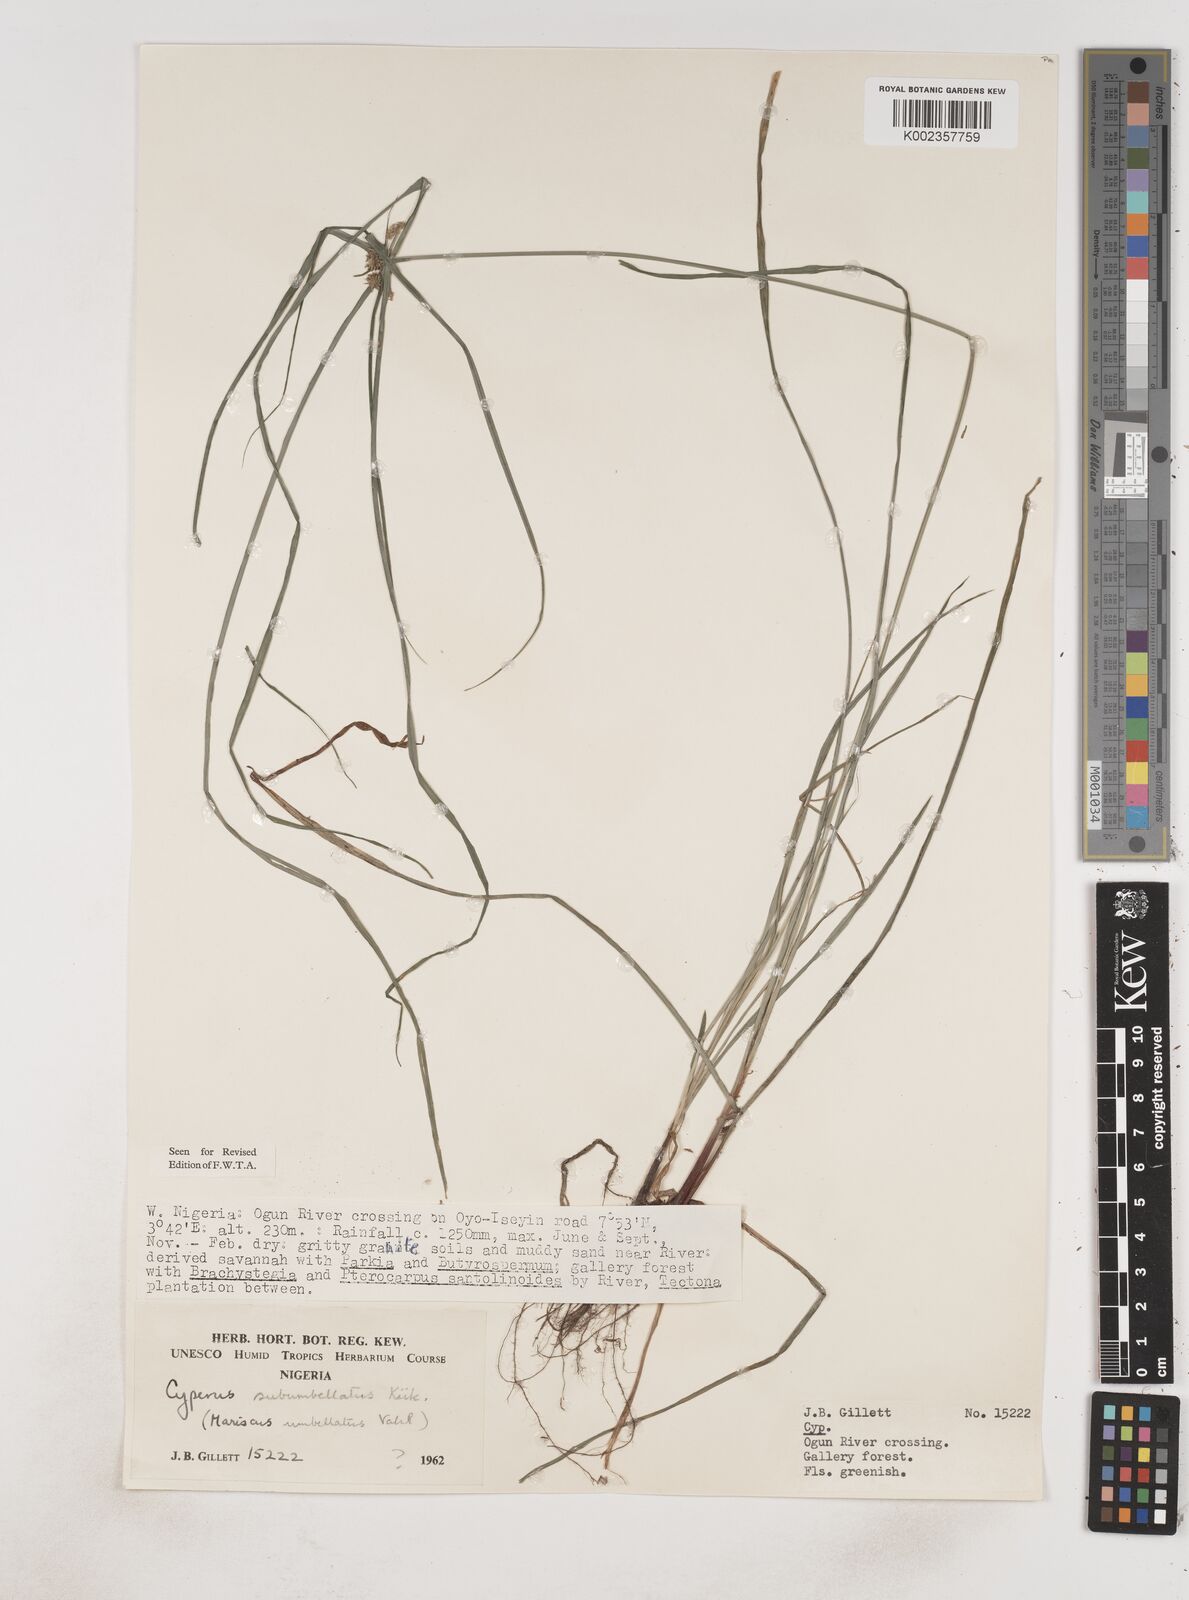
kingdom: Plantae
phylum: Tracheophyta
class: Liliopsida
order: Poales
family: Cyperaceae
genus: Cyperus
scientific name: Cyperus sublimis
